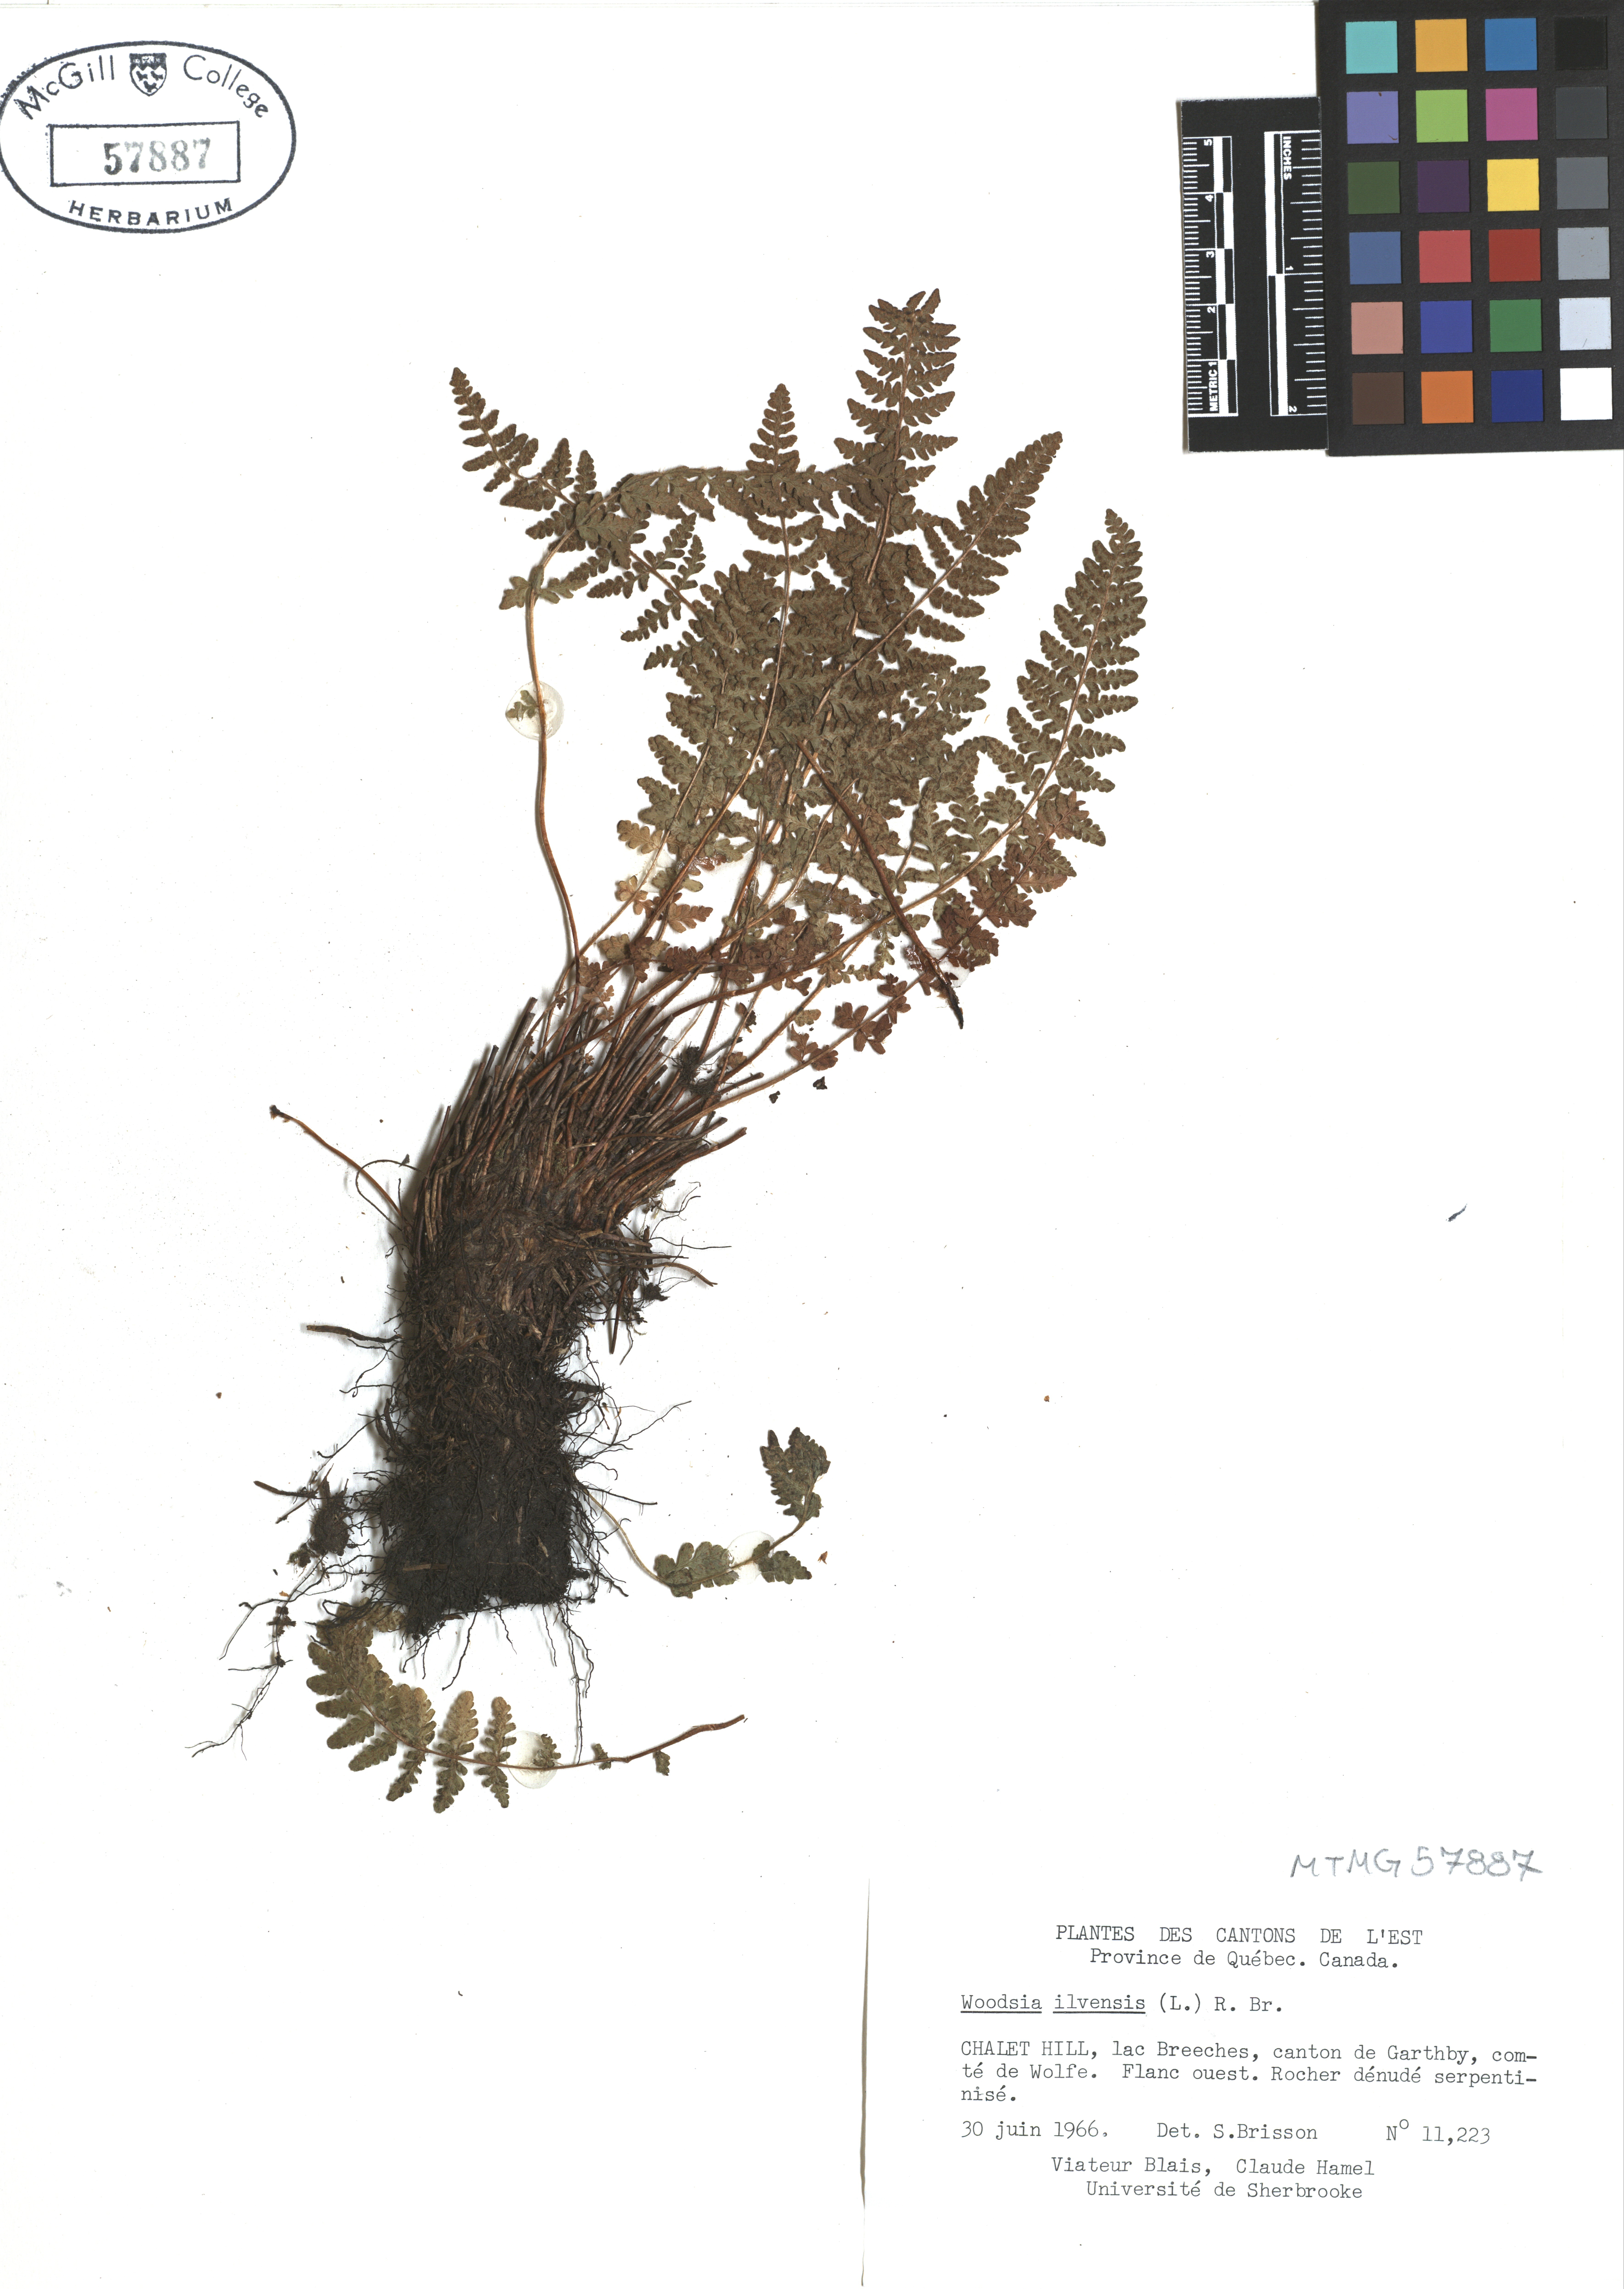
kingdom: Plantae
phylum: Tracheophyta
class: Polypodiopsida
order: Polypodiales
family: Woodsiaceae
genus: Woodsia
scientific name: Woodsia ilvensis
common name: Fragrant woodsia
